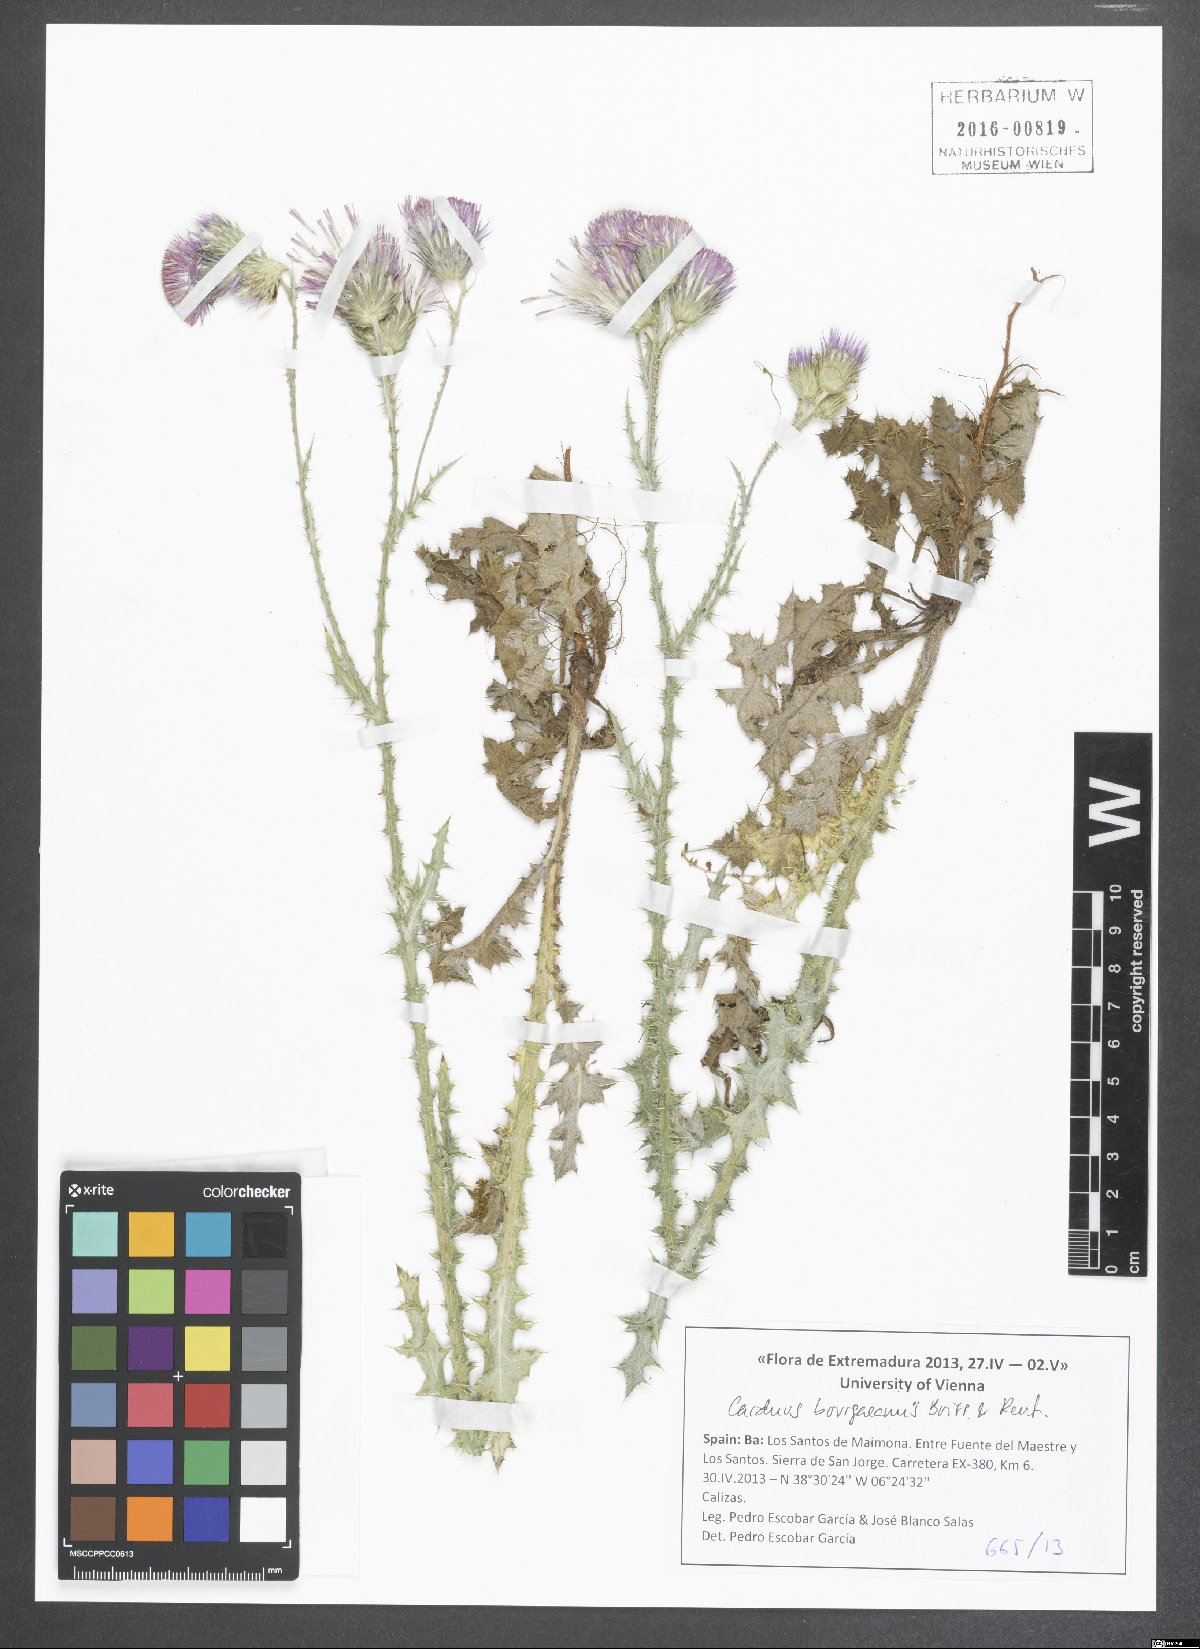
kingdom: Plantae
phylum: Tracheophyta
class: Magnoliopsida
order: Asterales
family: Asteraceae
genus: Carduus
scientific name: Carduus bourgaeanus
